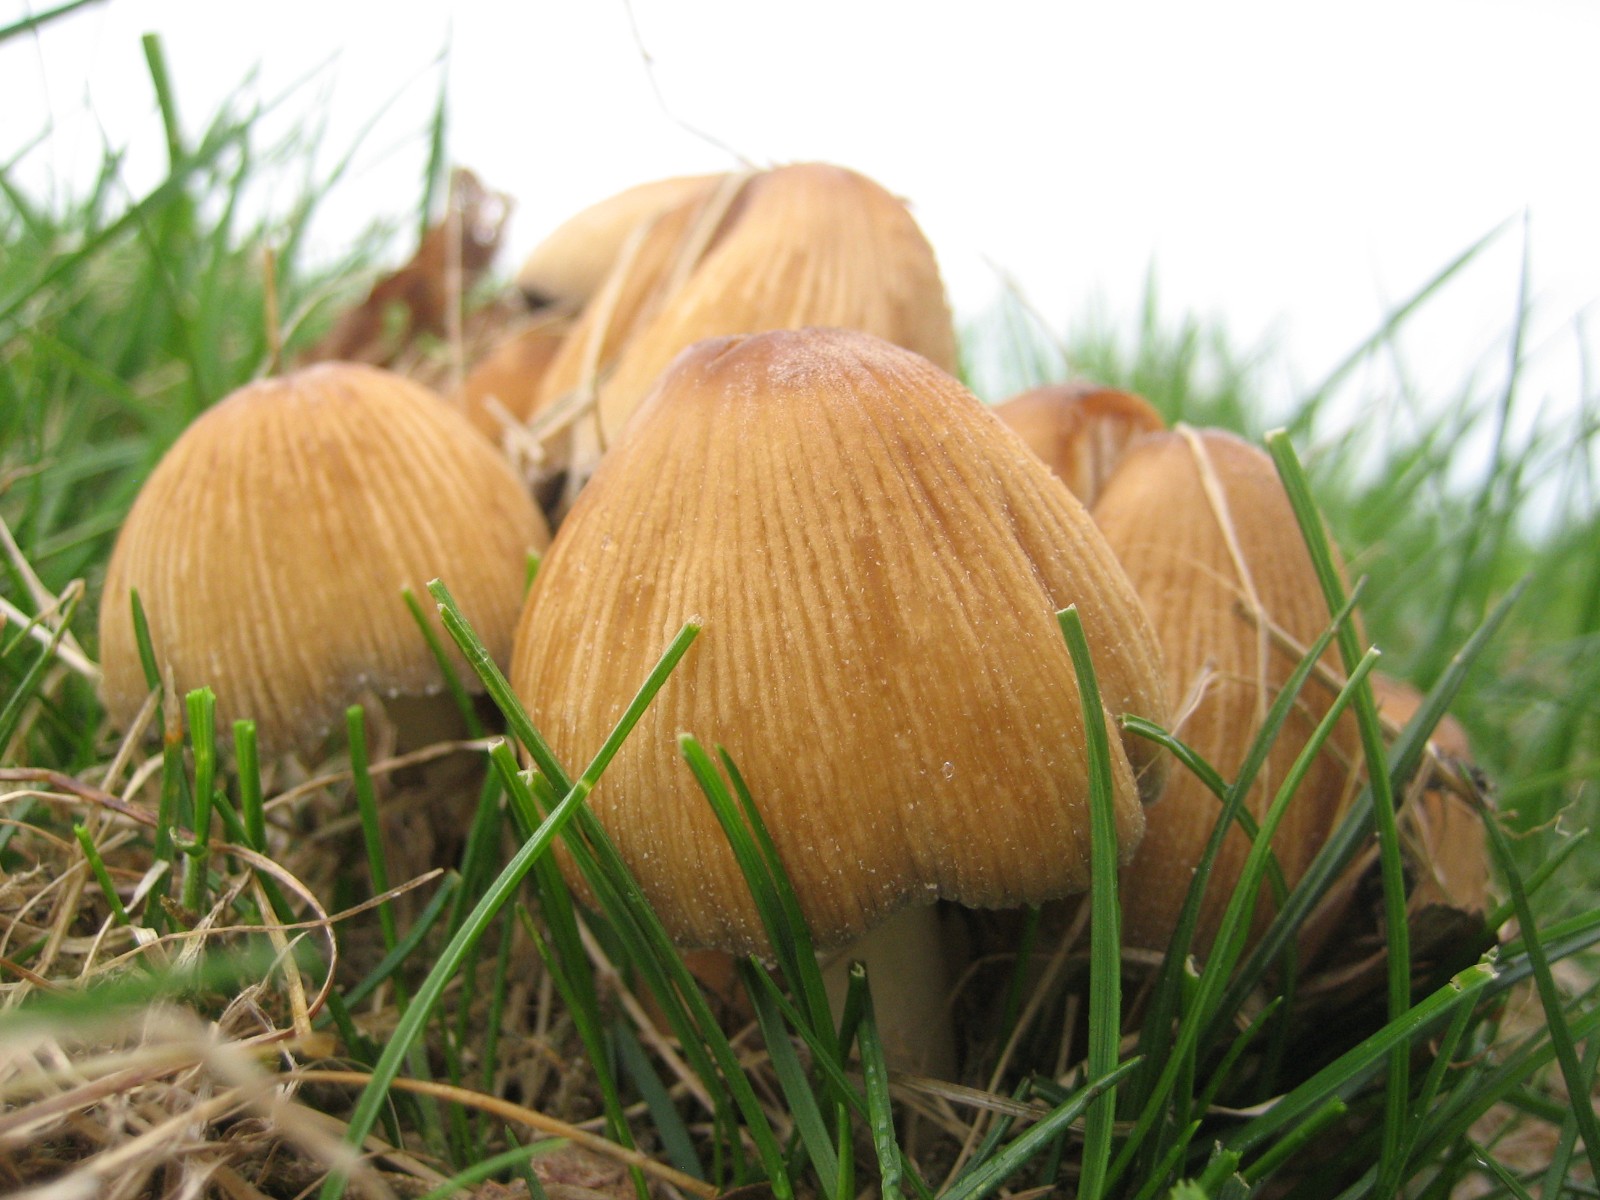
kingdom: Fungi
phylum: Basidiomycota
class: Agaricomycetes
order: Agaricales
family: Psathyrellaceae
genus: Coprinellus
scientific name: Coprinellus micaceus
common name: glimmer-blækhat
